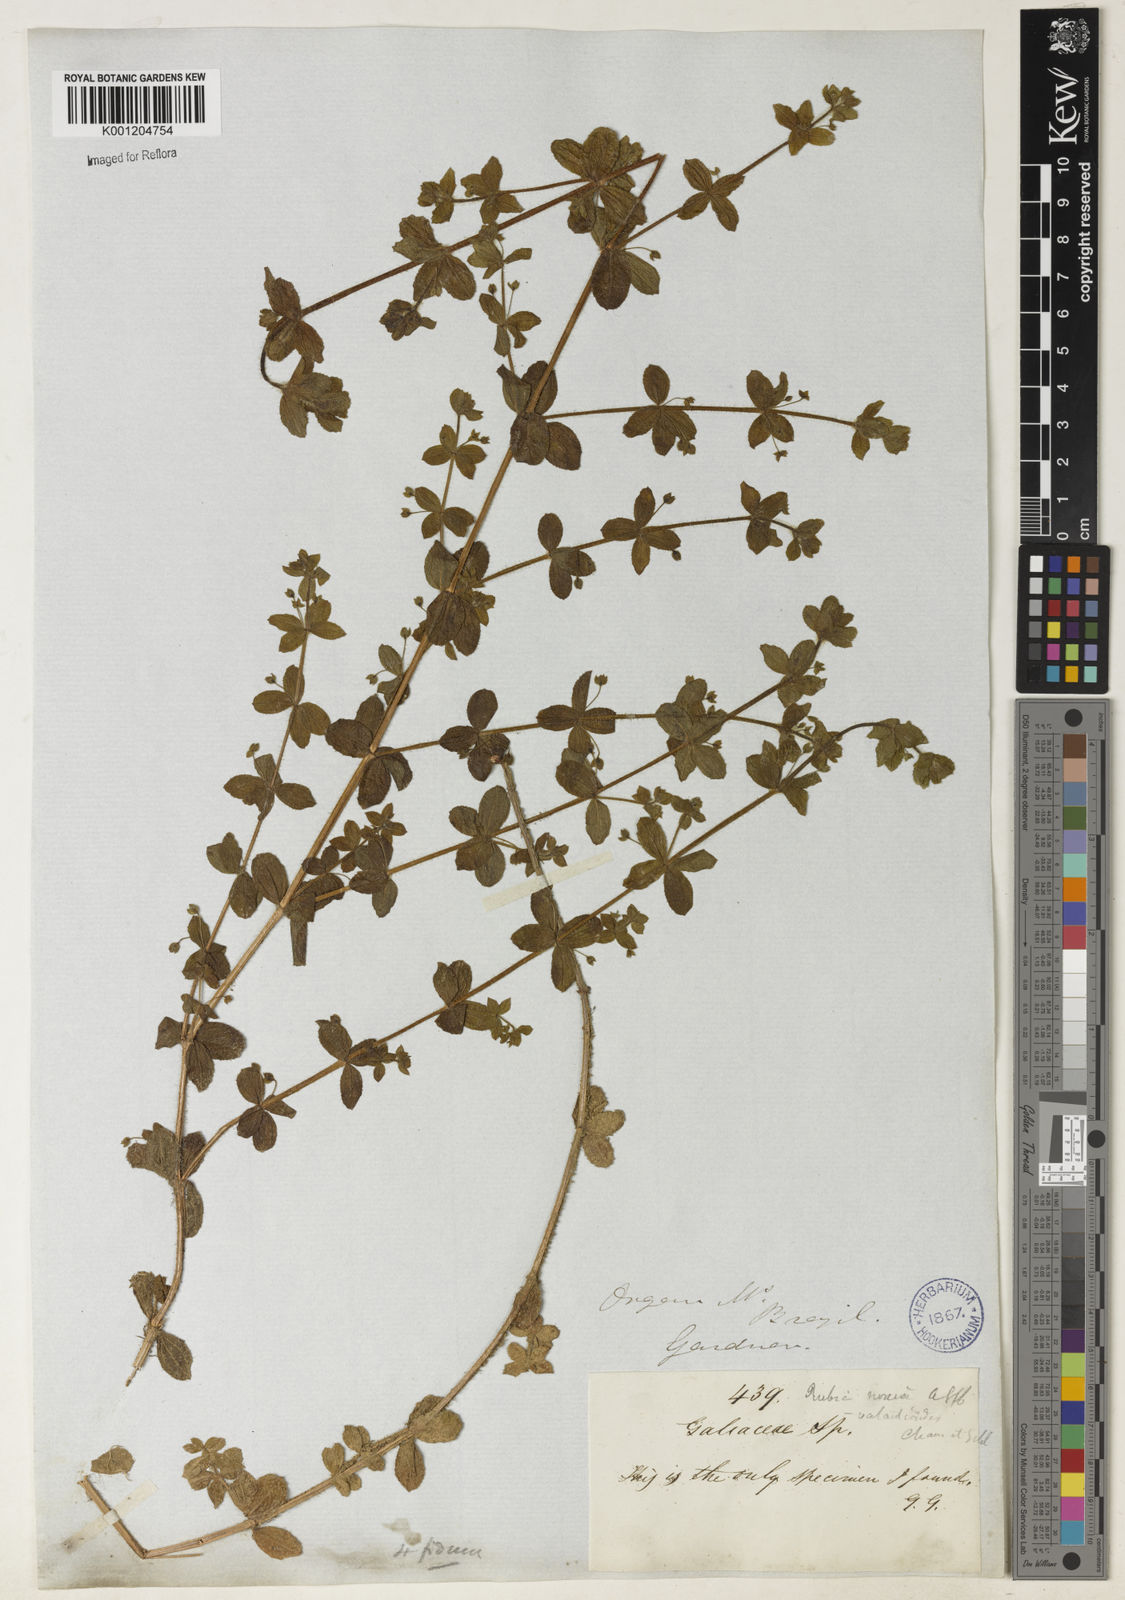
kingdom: Plantae
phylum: Tracheophyta
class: Magnoliopsida
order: Gentianales
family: Rubiaceae
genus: Galium
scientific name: Galium noxium
